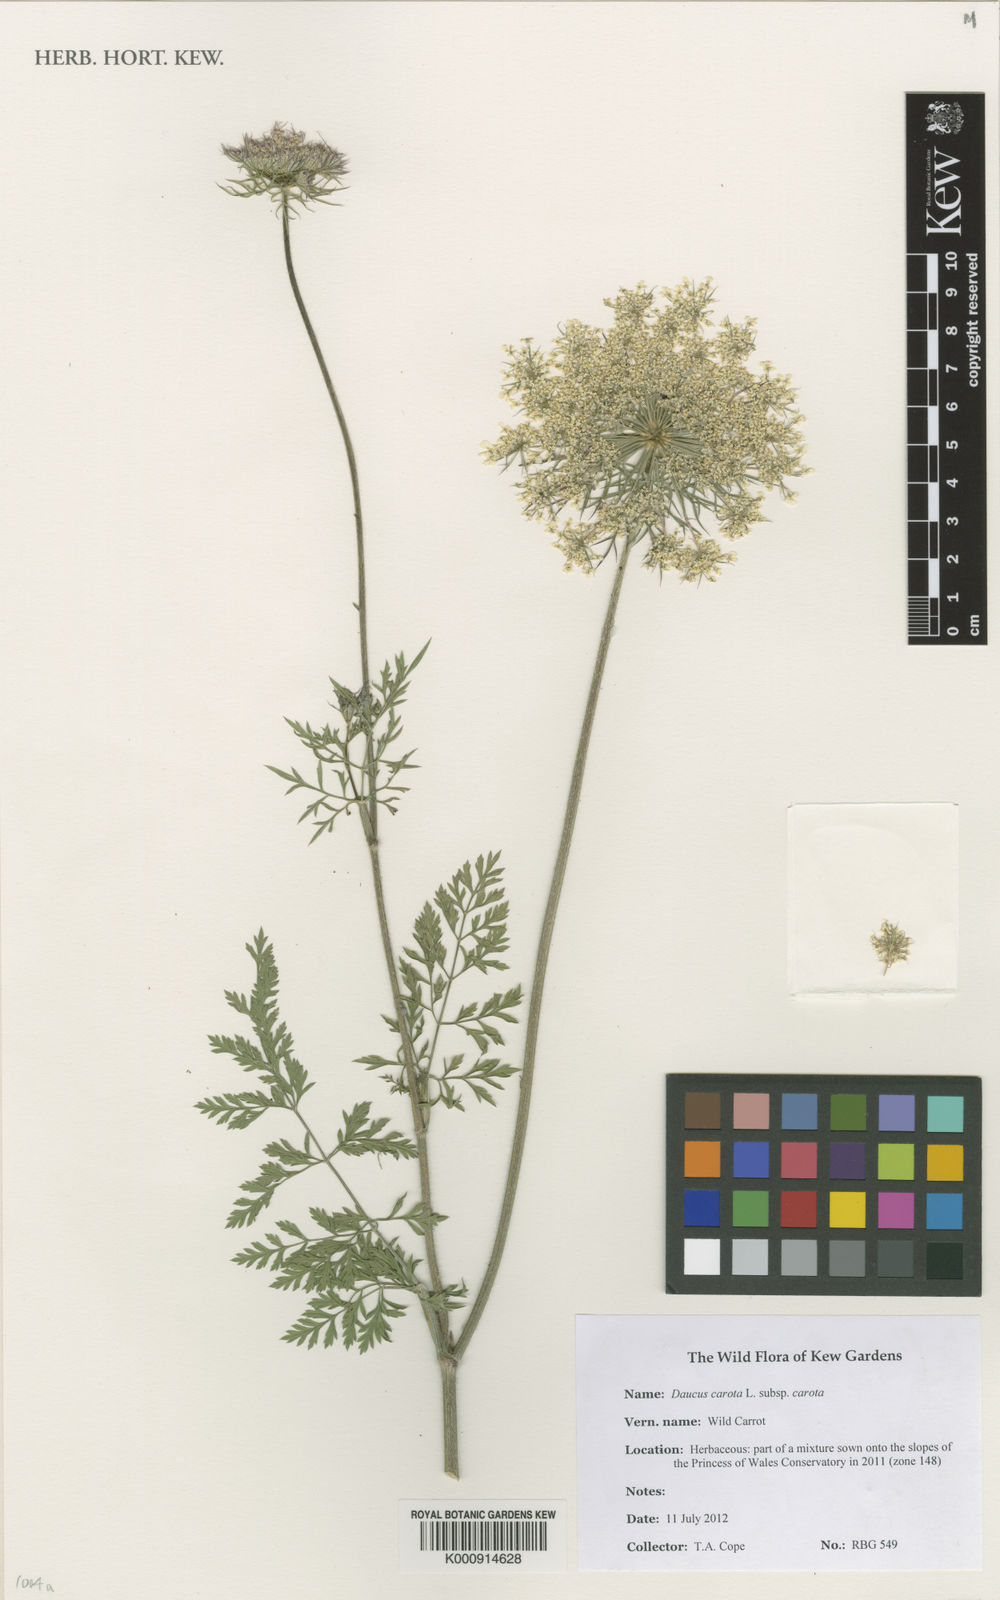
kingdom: Plantae
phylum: Tracheophyta
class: Magnoliopsida
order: Apiales
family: Apiaceae
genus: Daucus
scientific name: Daucus carota
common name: Wild carrot
